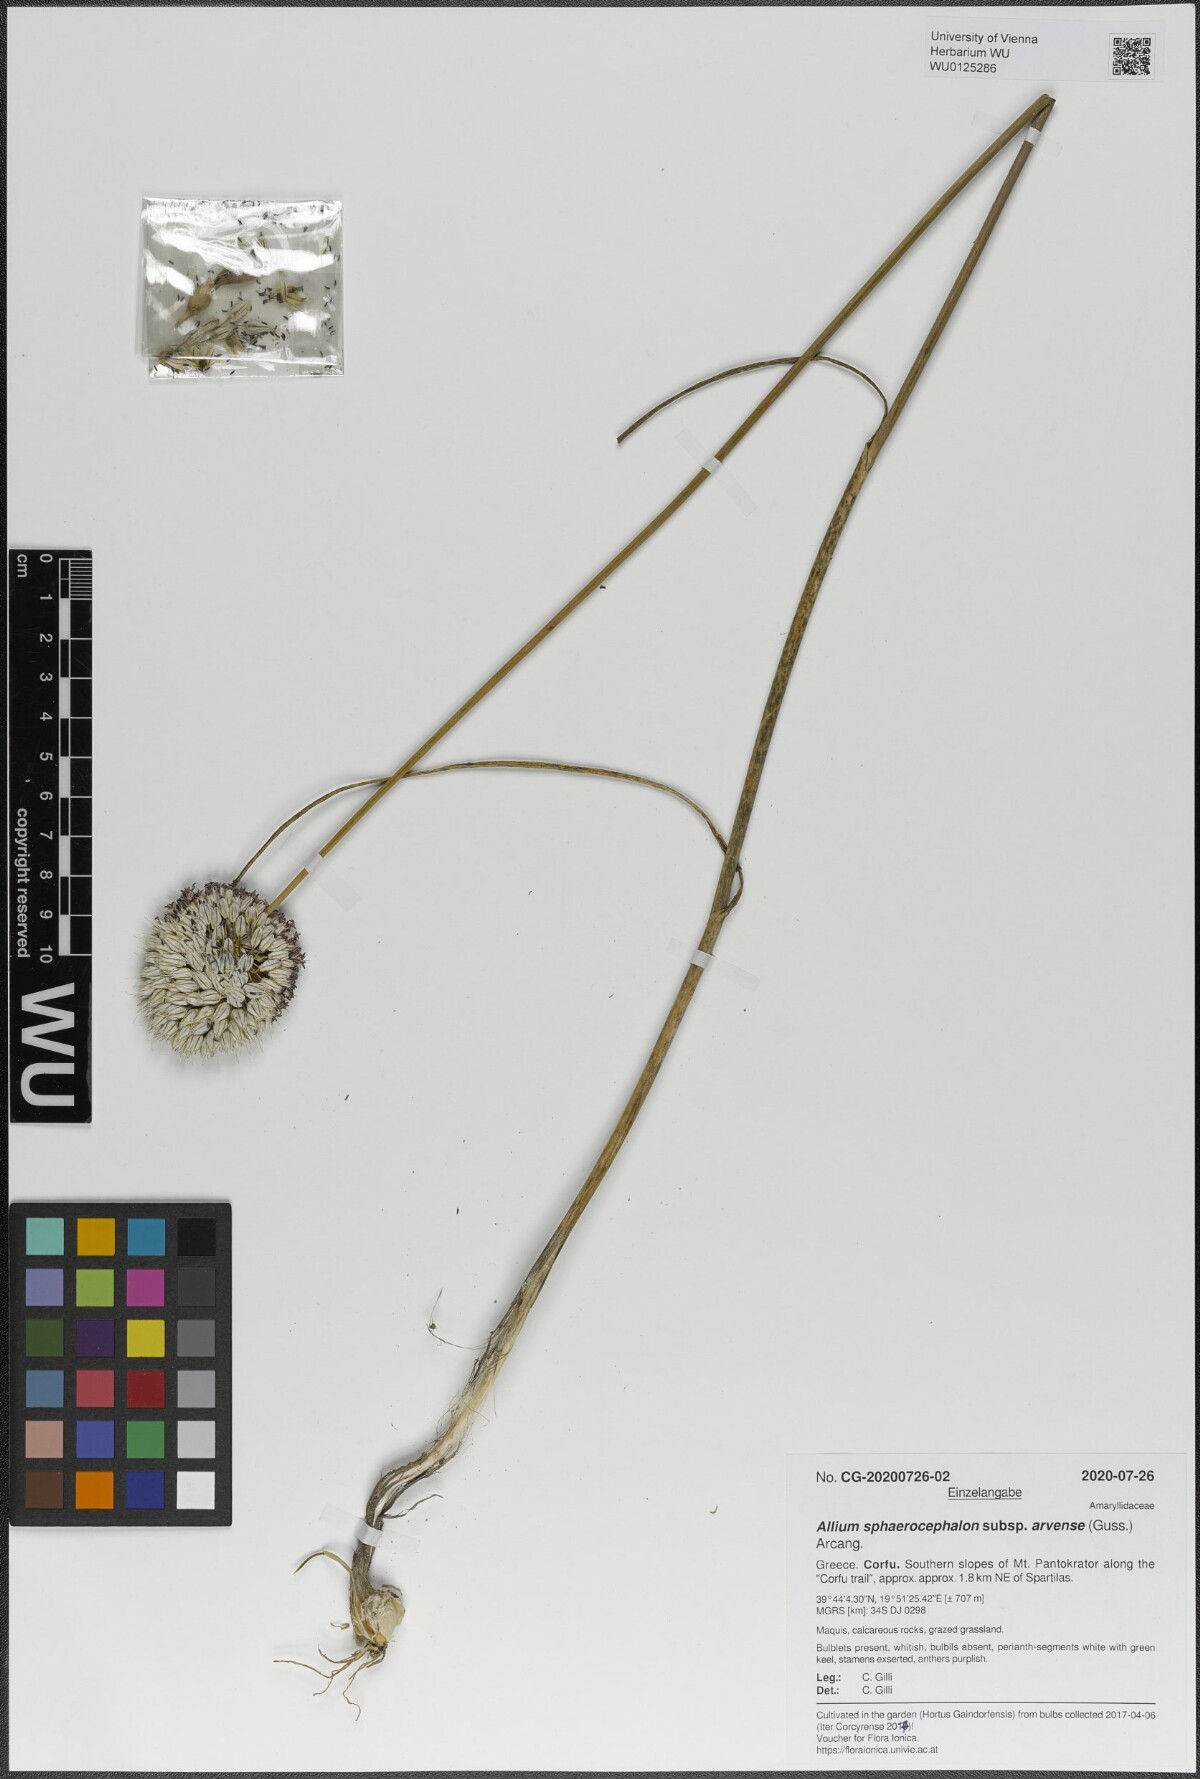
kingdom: Plantae
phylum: Tracheophyta
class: Liliopsida
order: Asparagales
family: Amaryllidaceae
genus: Allium
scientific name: Allium sphaerocephalon
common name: Round-headed leek
